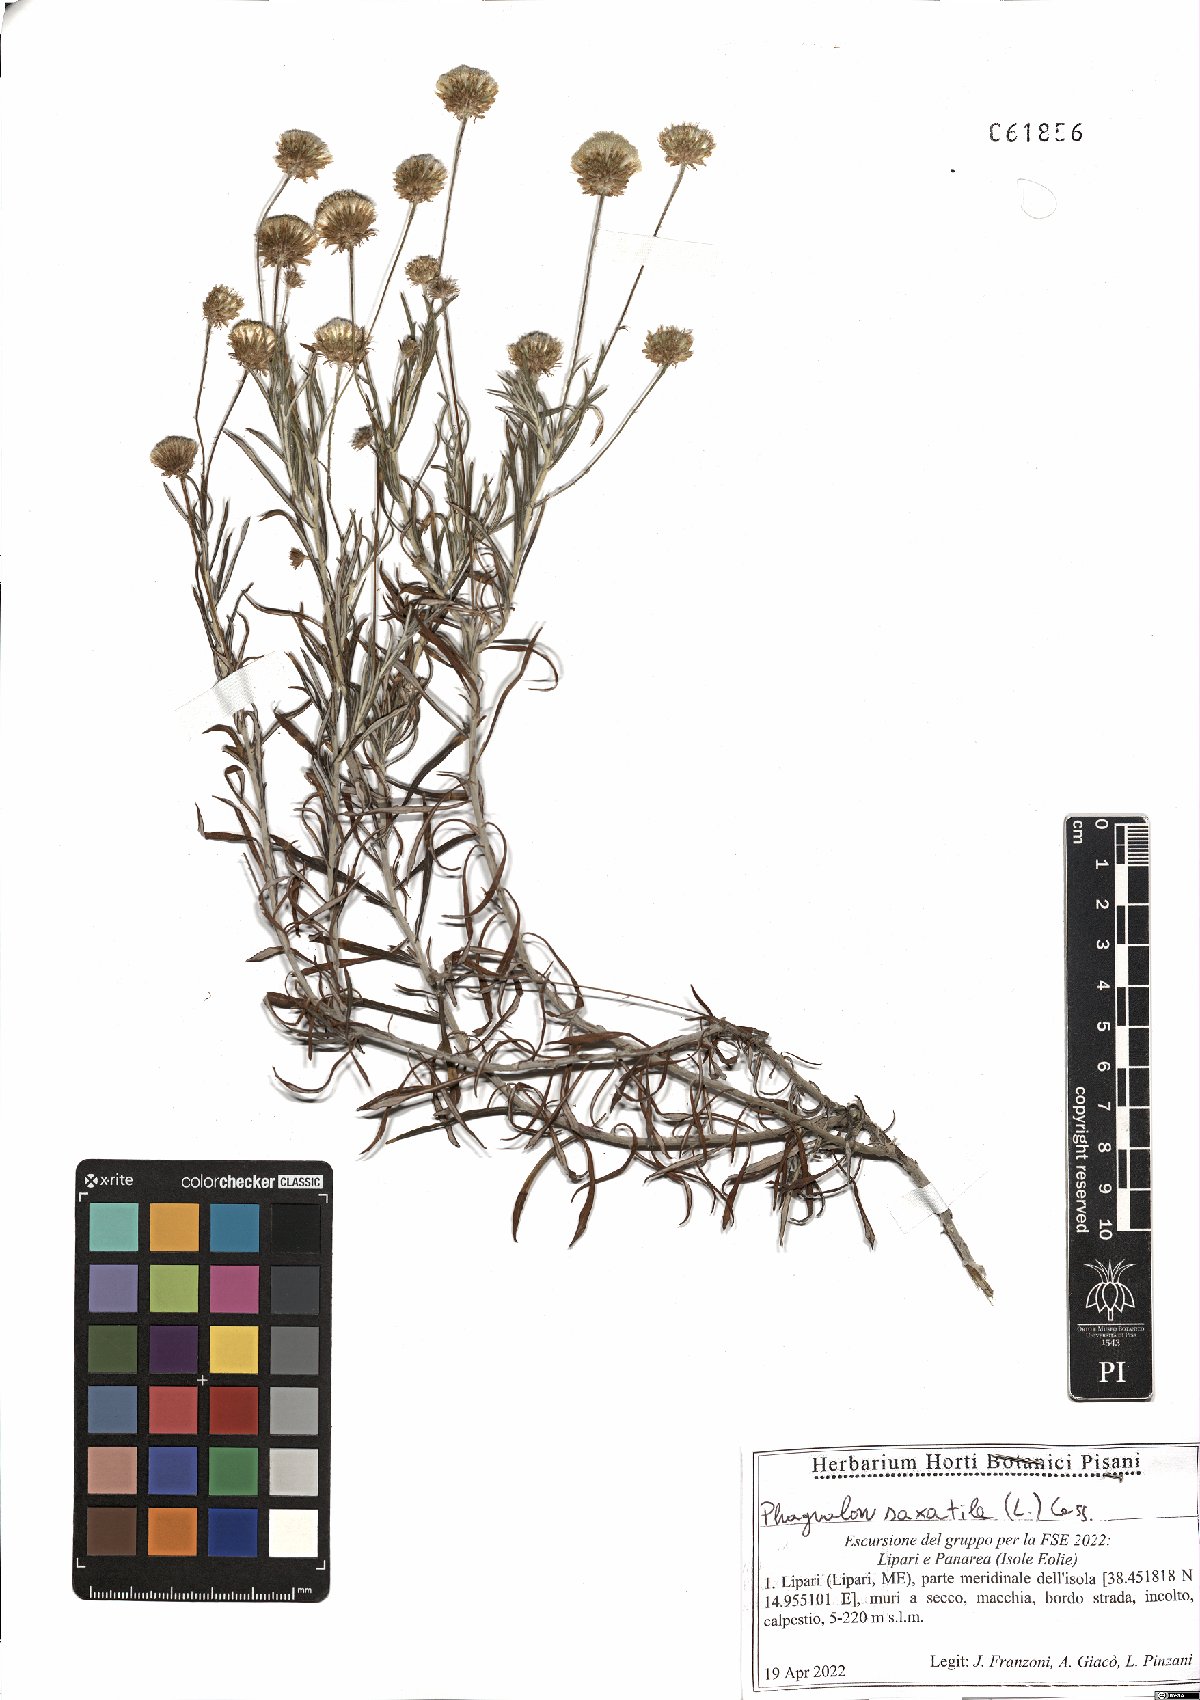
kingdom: Plantae
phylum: Tracheophyta
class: Magnoliopsida
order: Asterales
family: Asteraceae
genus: Phagnalon
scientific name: Phagnalon saxatile
